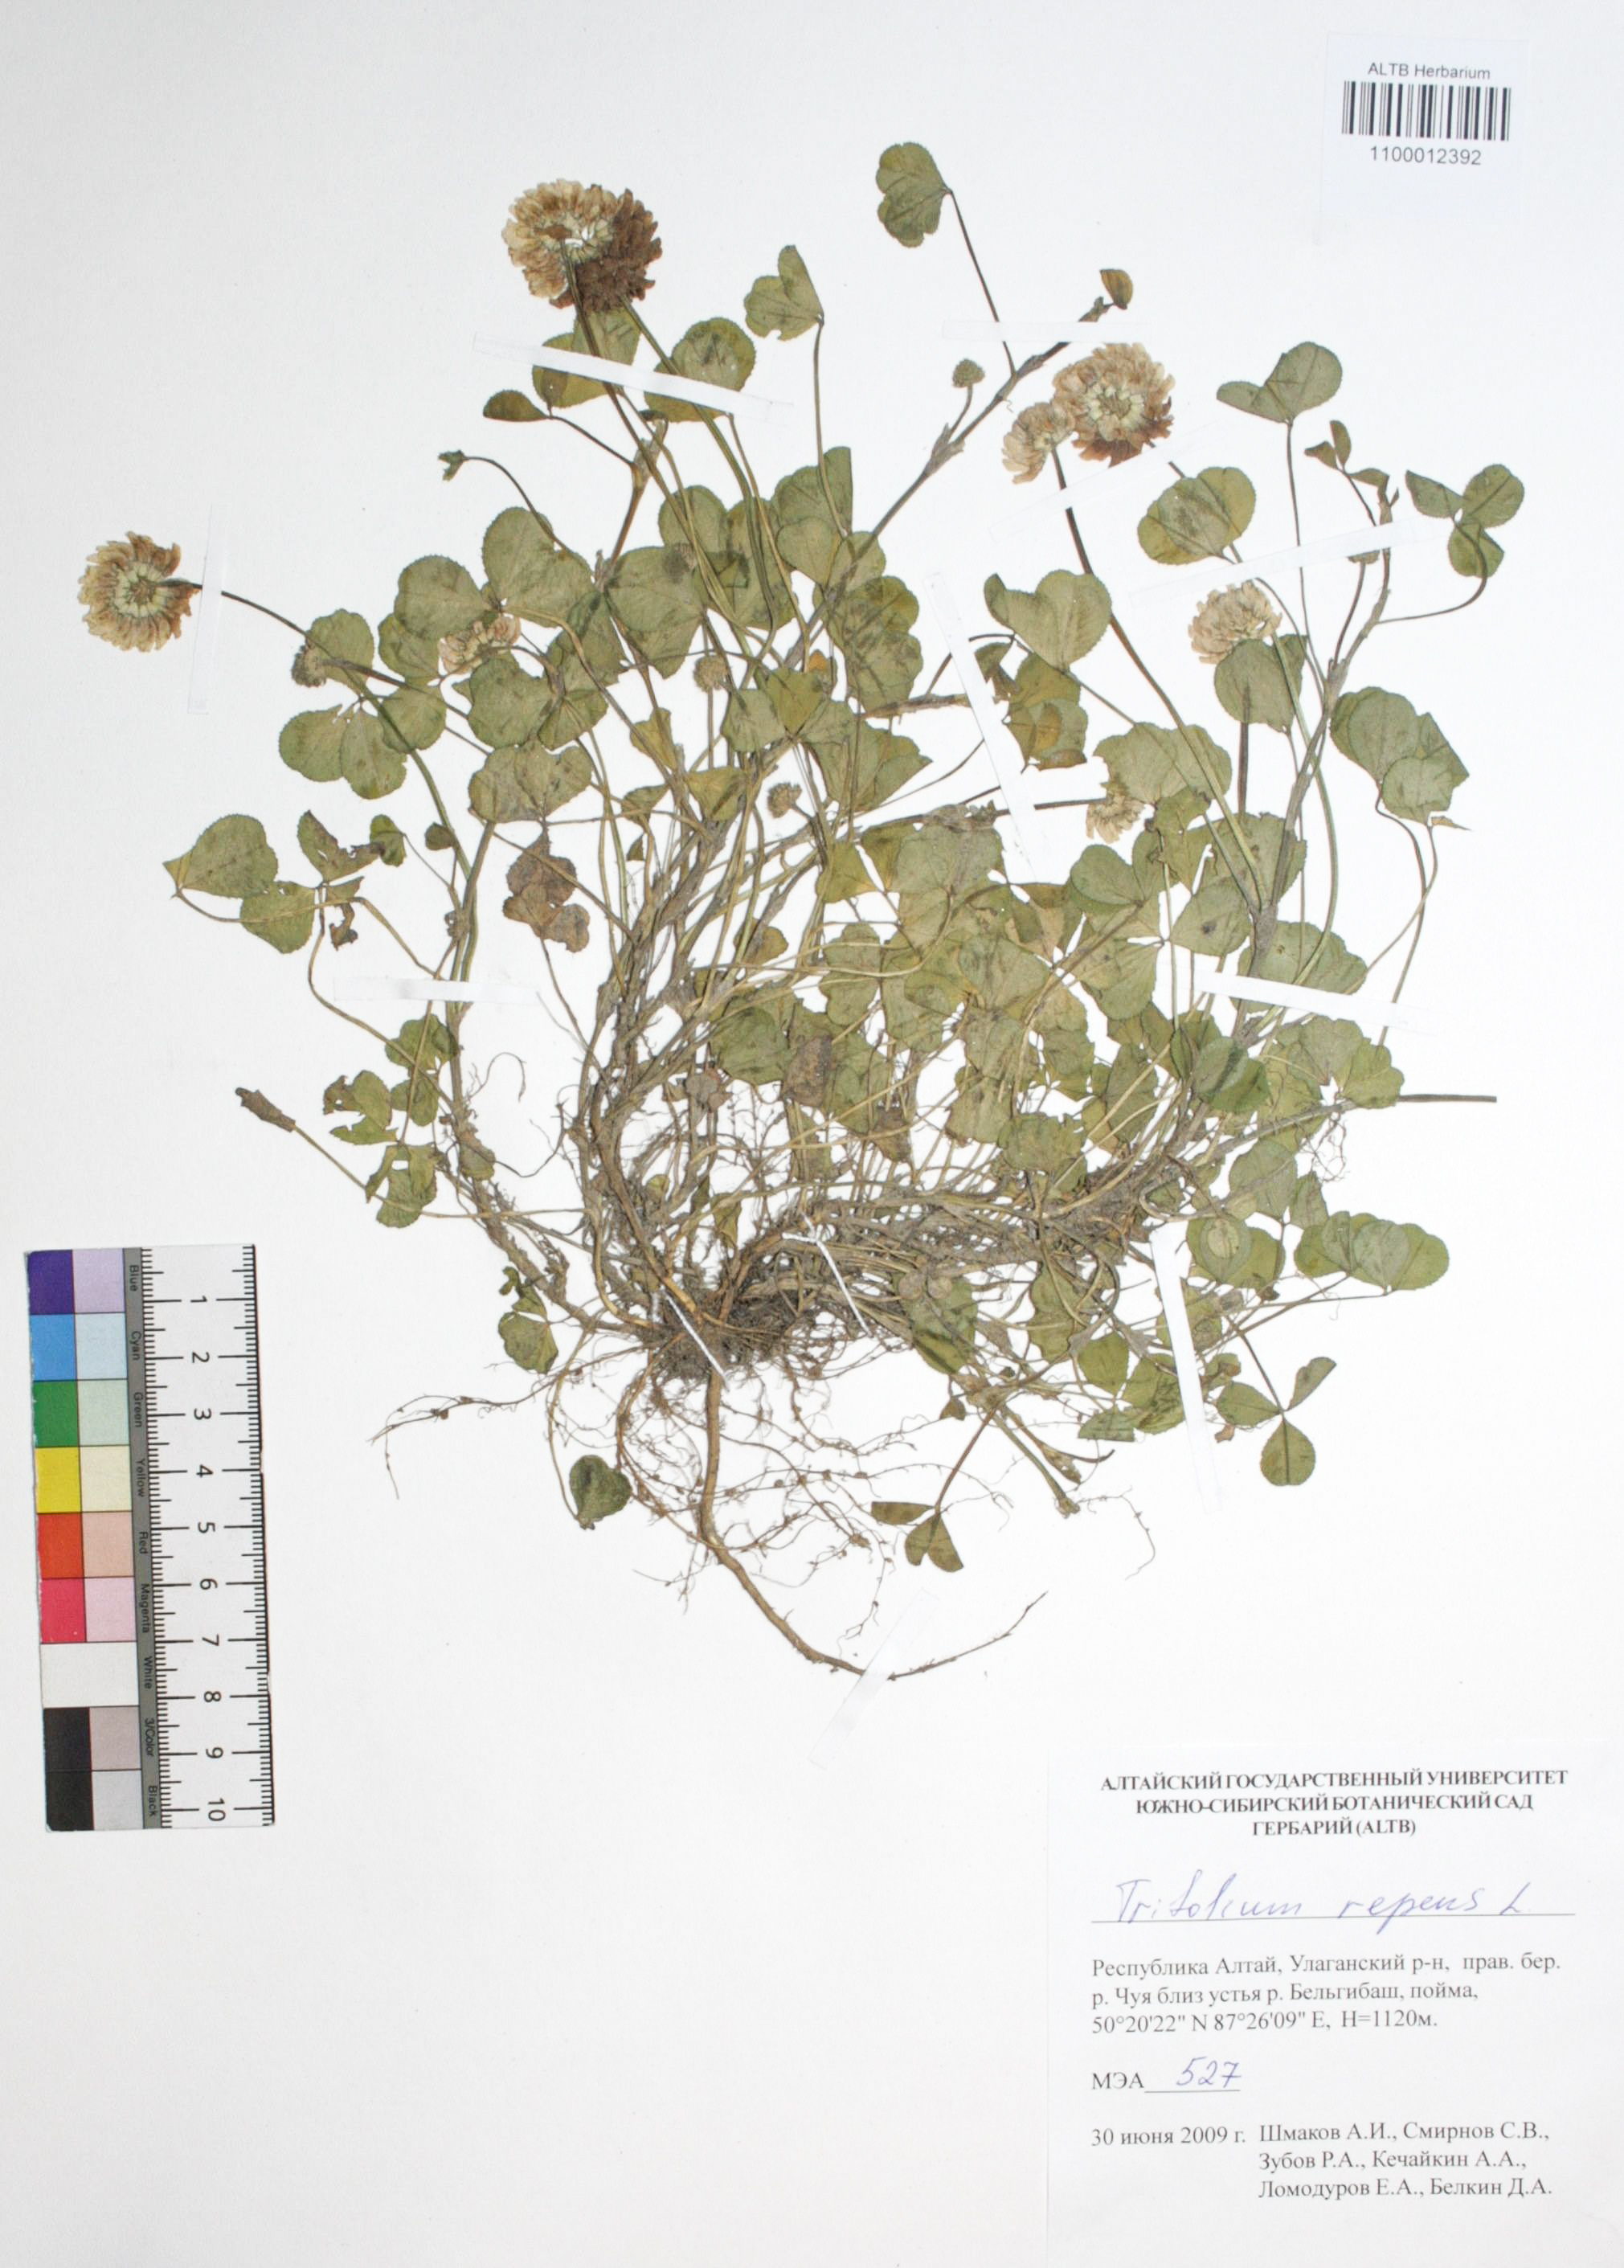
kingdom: Plantae
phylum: Tracheophyta
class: Magnoliopsida
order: Fabales
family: Fabaceae
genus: Trifolium
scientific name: Trifolium repens
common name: White clover
